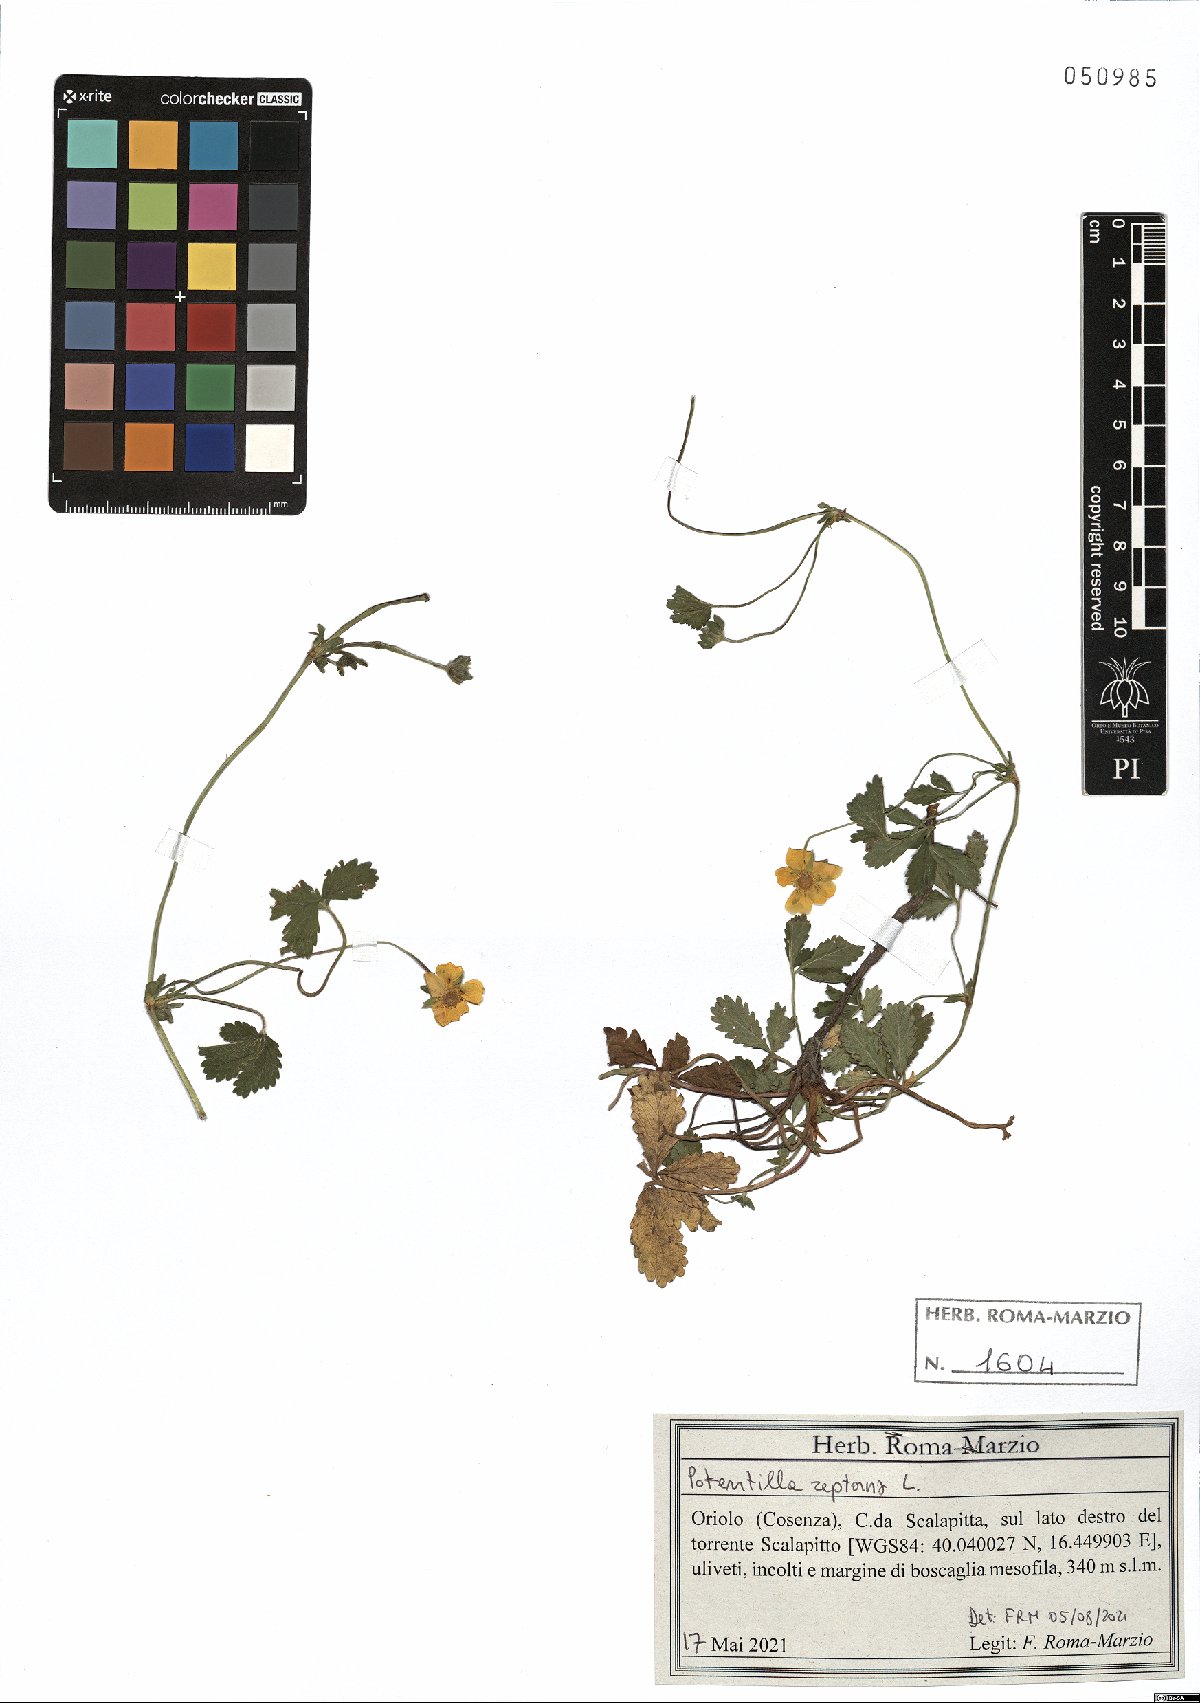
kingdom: Plantae
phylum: Tracheophyta
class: Magnoliopsida
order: Rosales
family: Rosaceae
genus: Potentilla
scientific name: Potentilla reptans
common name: Creeping cinquefoil
